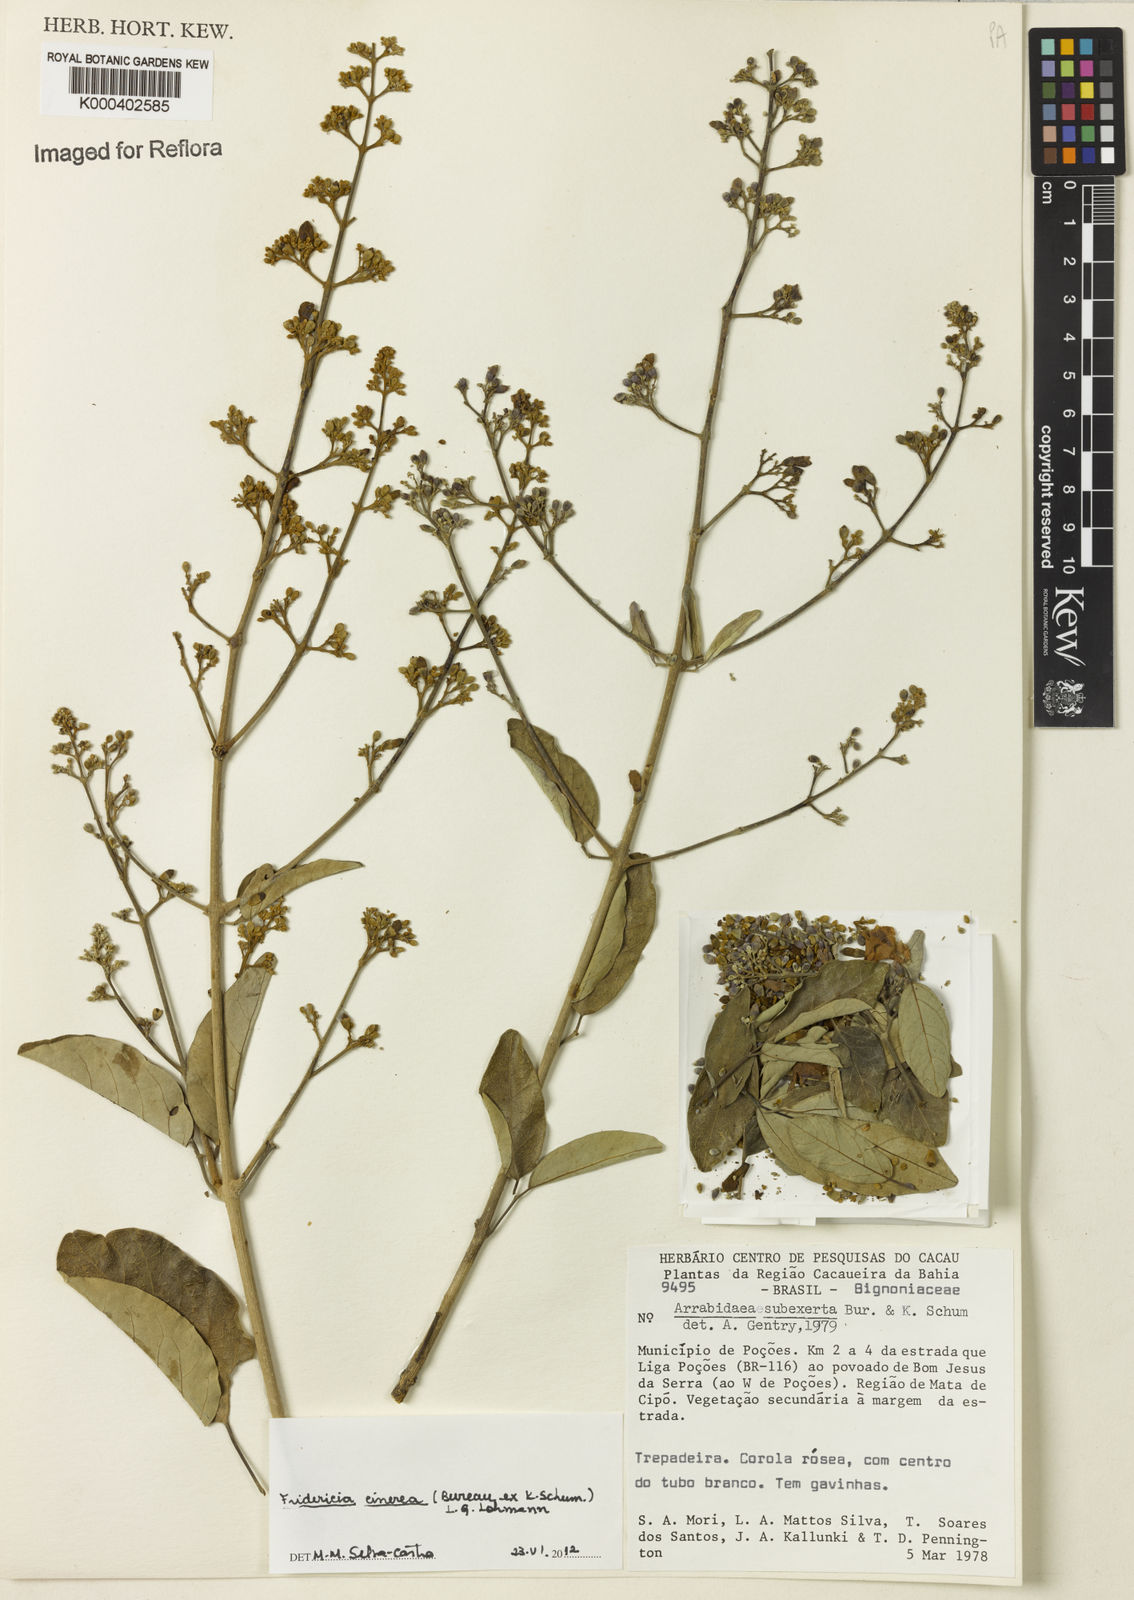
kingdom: Plantae
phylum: Tracheophyta
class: Magnoliopsida
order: Lamiales
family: Bignoniaceae
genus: Fridericia
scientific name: Fridericia cinerea
